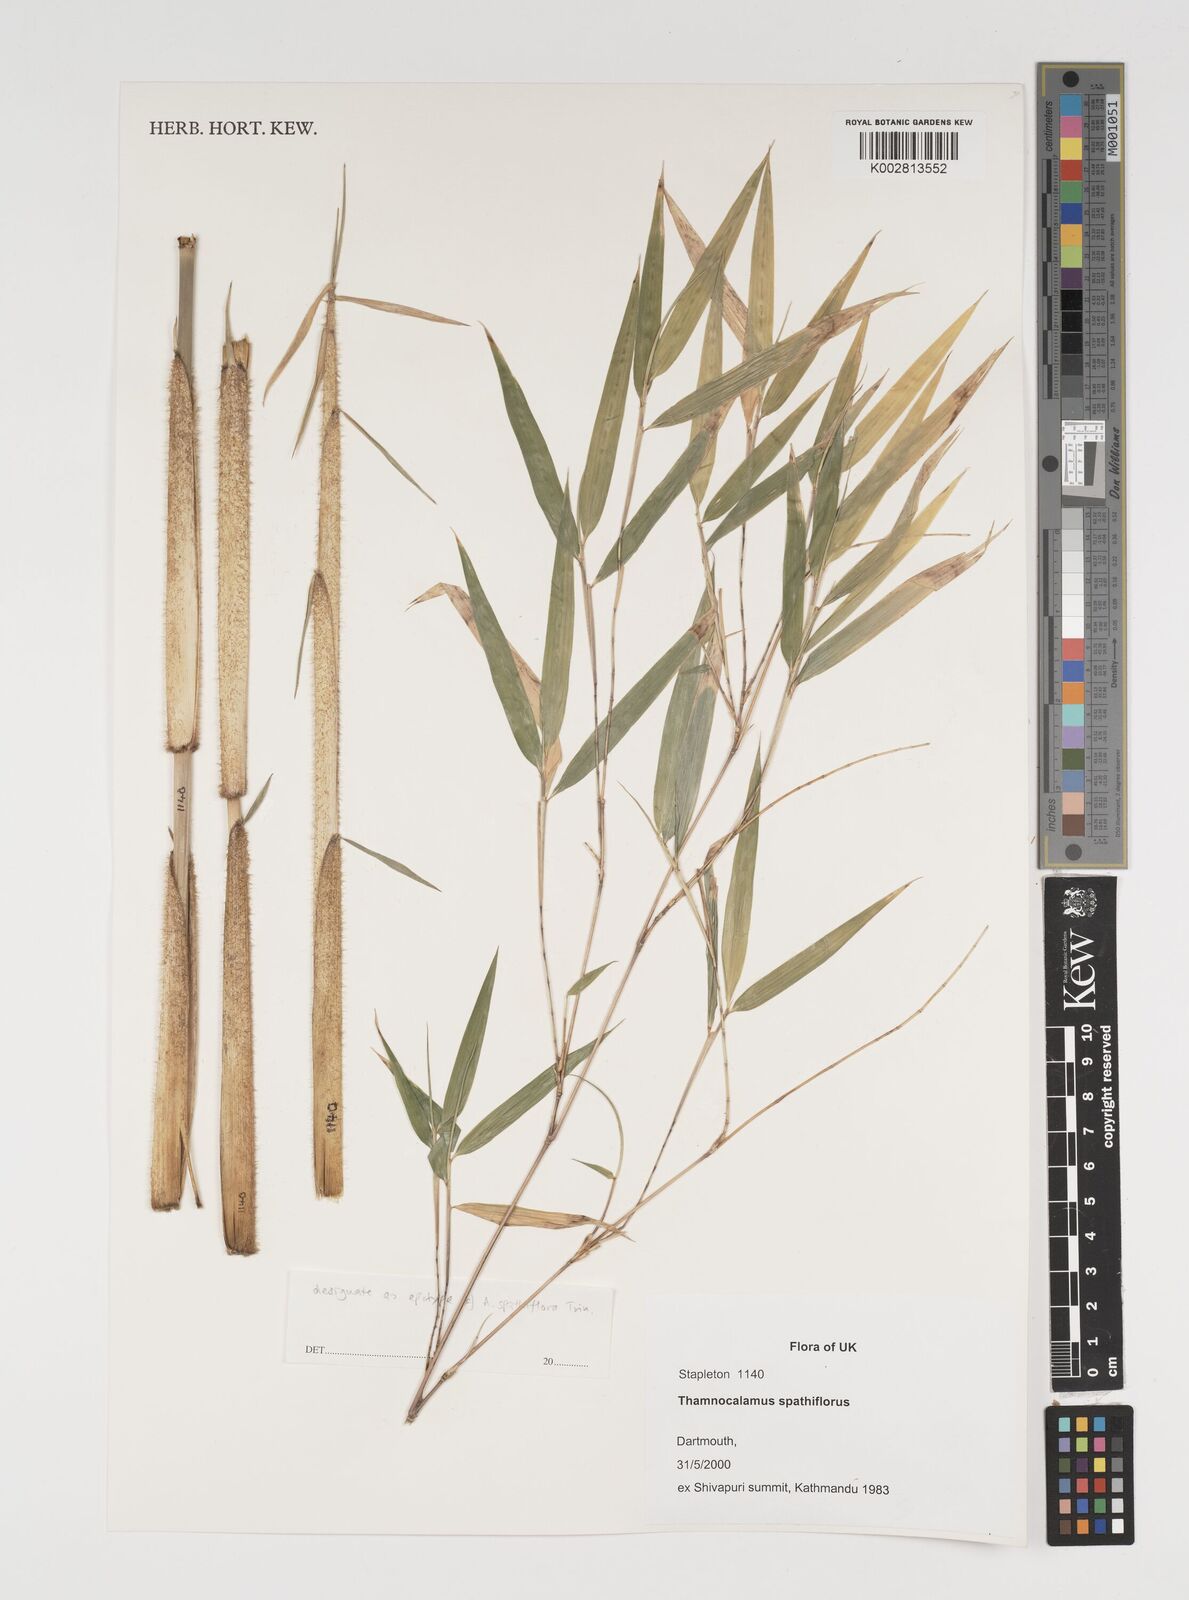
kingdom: Plantae
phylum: Tracheophyta
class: Liliopsida
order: Poales
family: Poaceae
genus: Fargesia
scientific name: Fargesia murielae
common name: Umbrella bamboo
